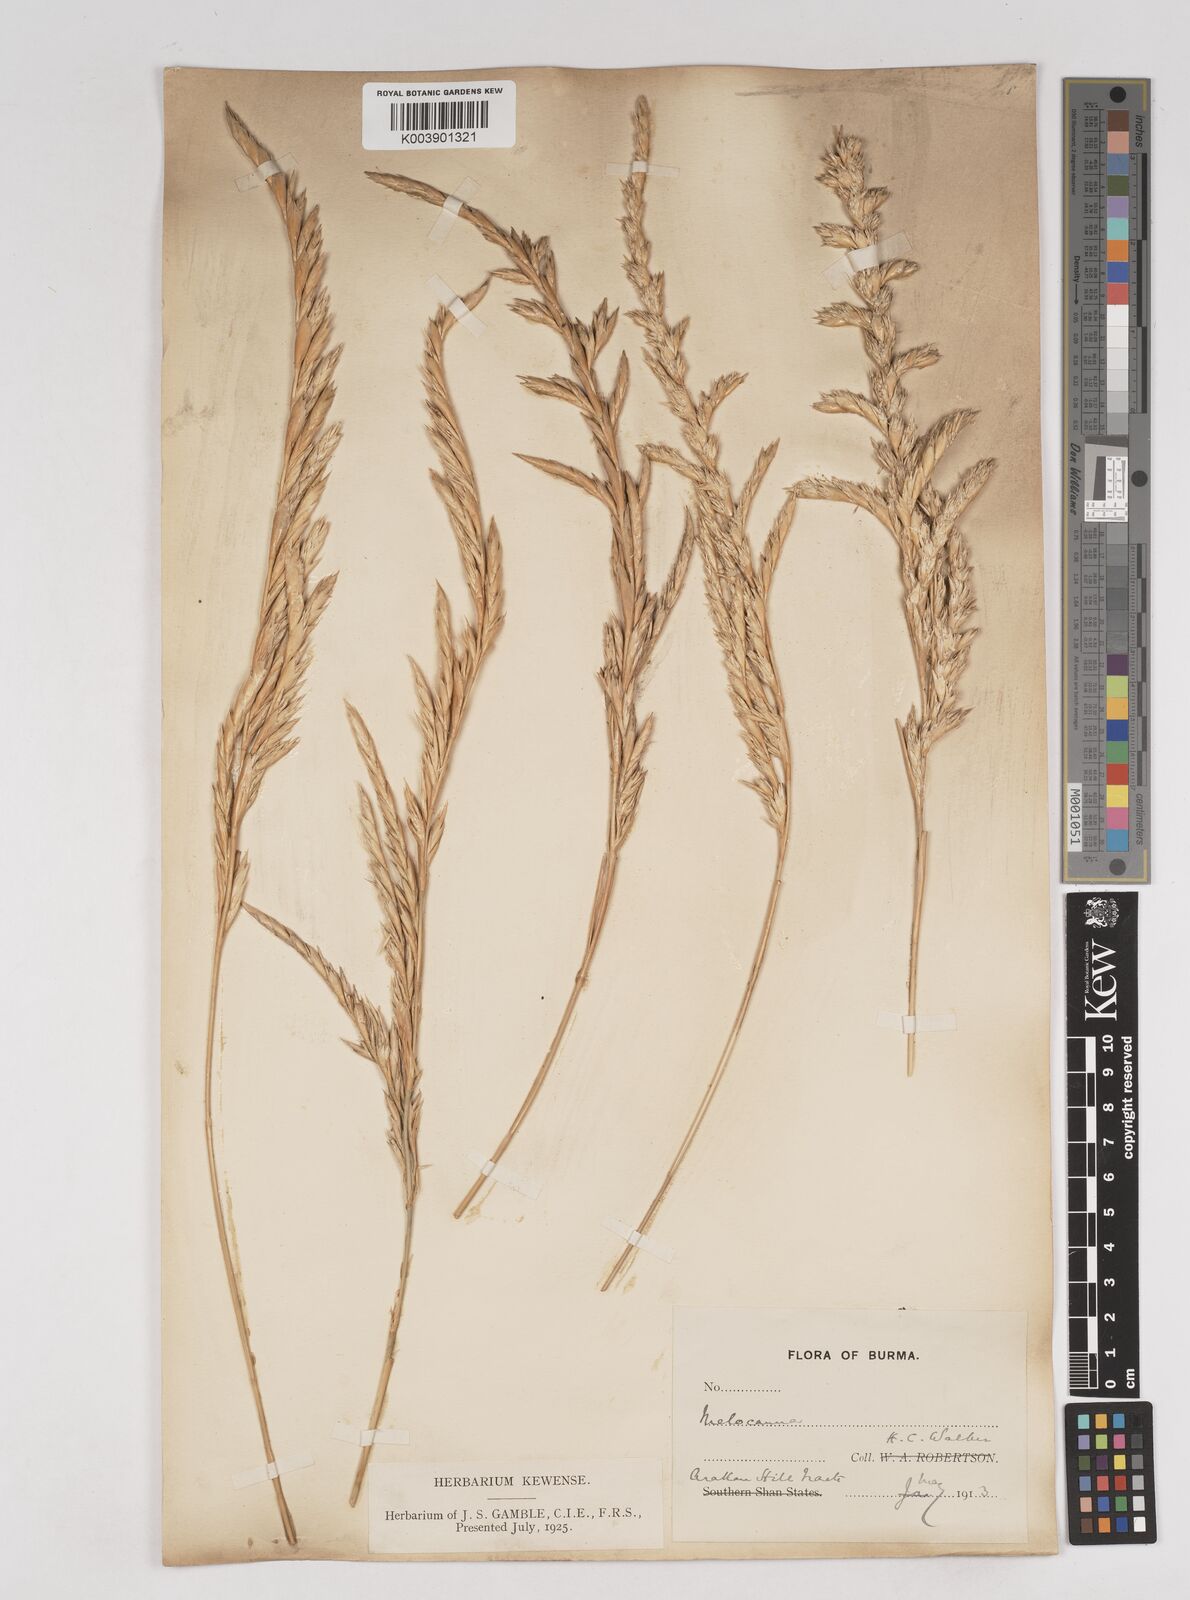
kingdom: Plantae
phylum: Tracheophyta
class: Liliopsida
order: Poales
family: Poaceae
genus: Melocanna
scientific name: Melocanna
